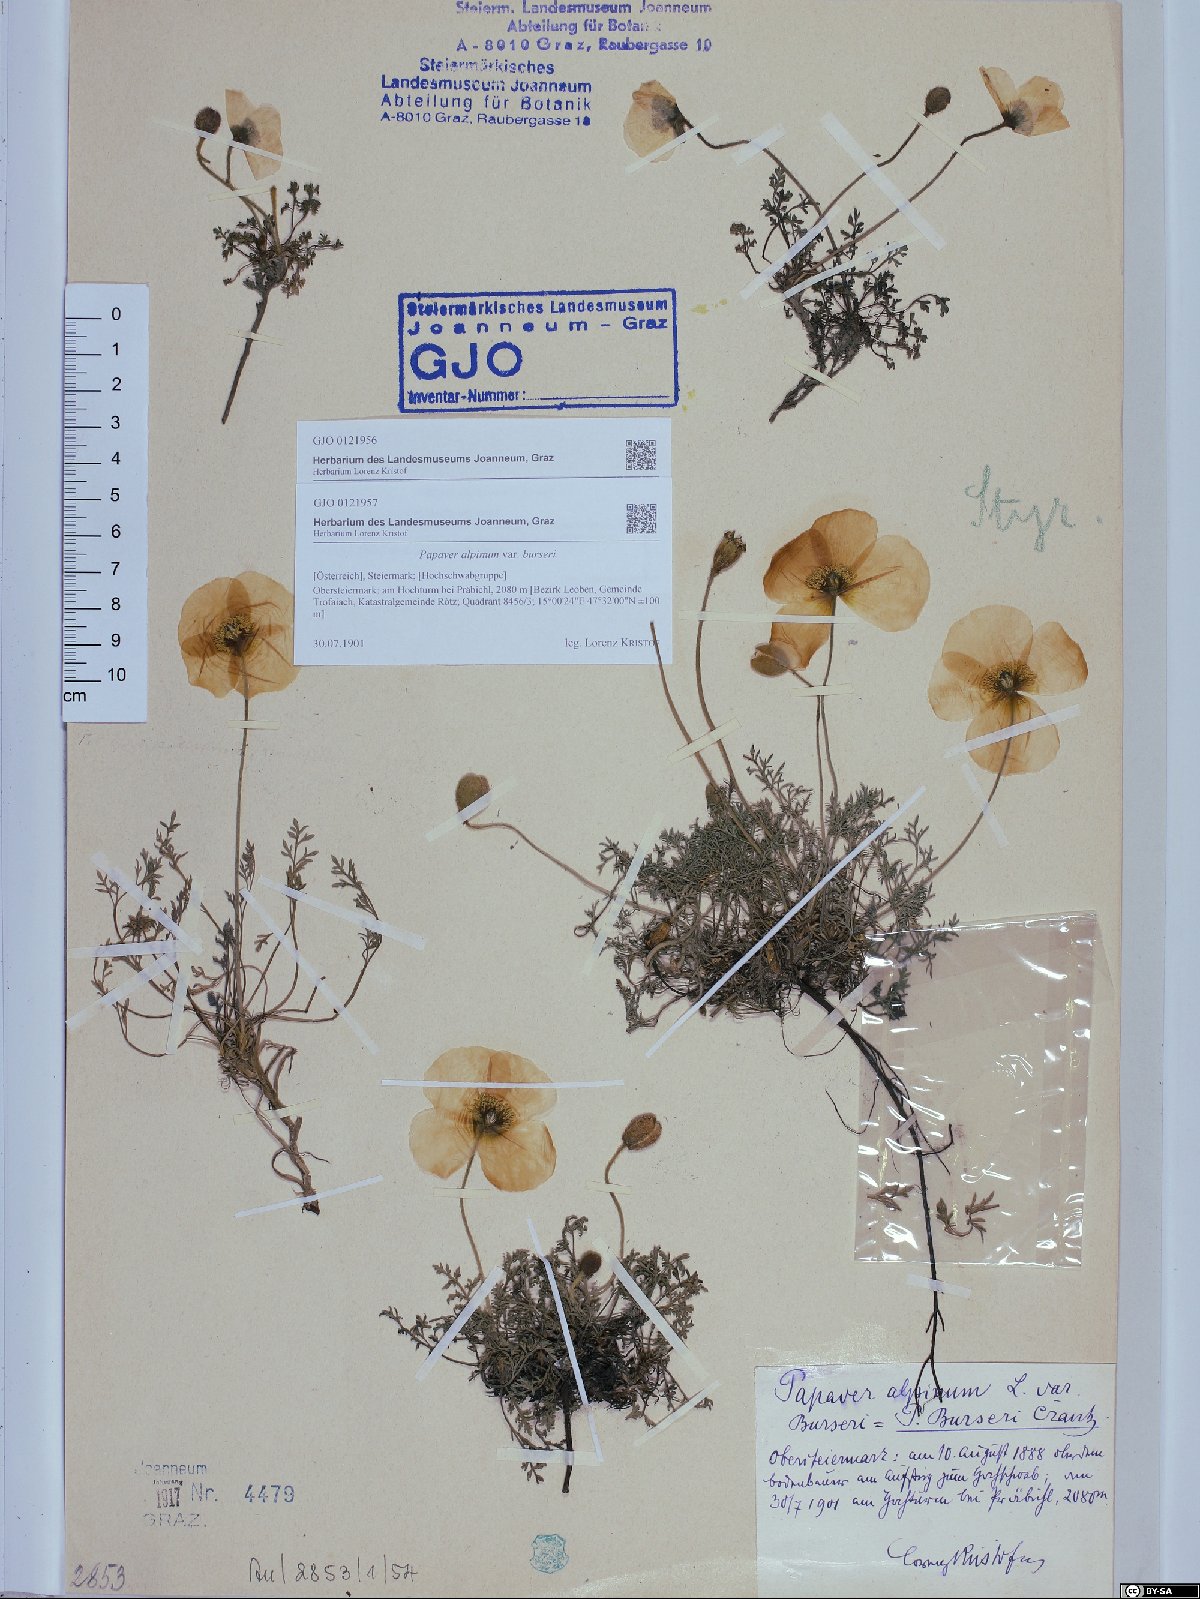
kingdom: Plantae
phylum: Tracheophyta
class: Magnoliopsida
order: Ranunculales
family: Papaveraceae
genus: Papaver
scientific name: Papaver alpinum
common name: Austrian poppy
